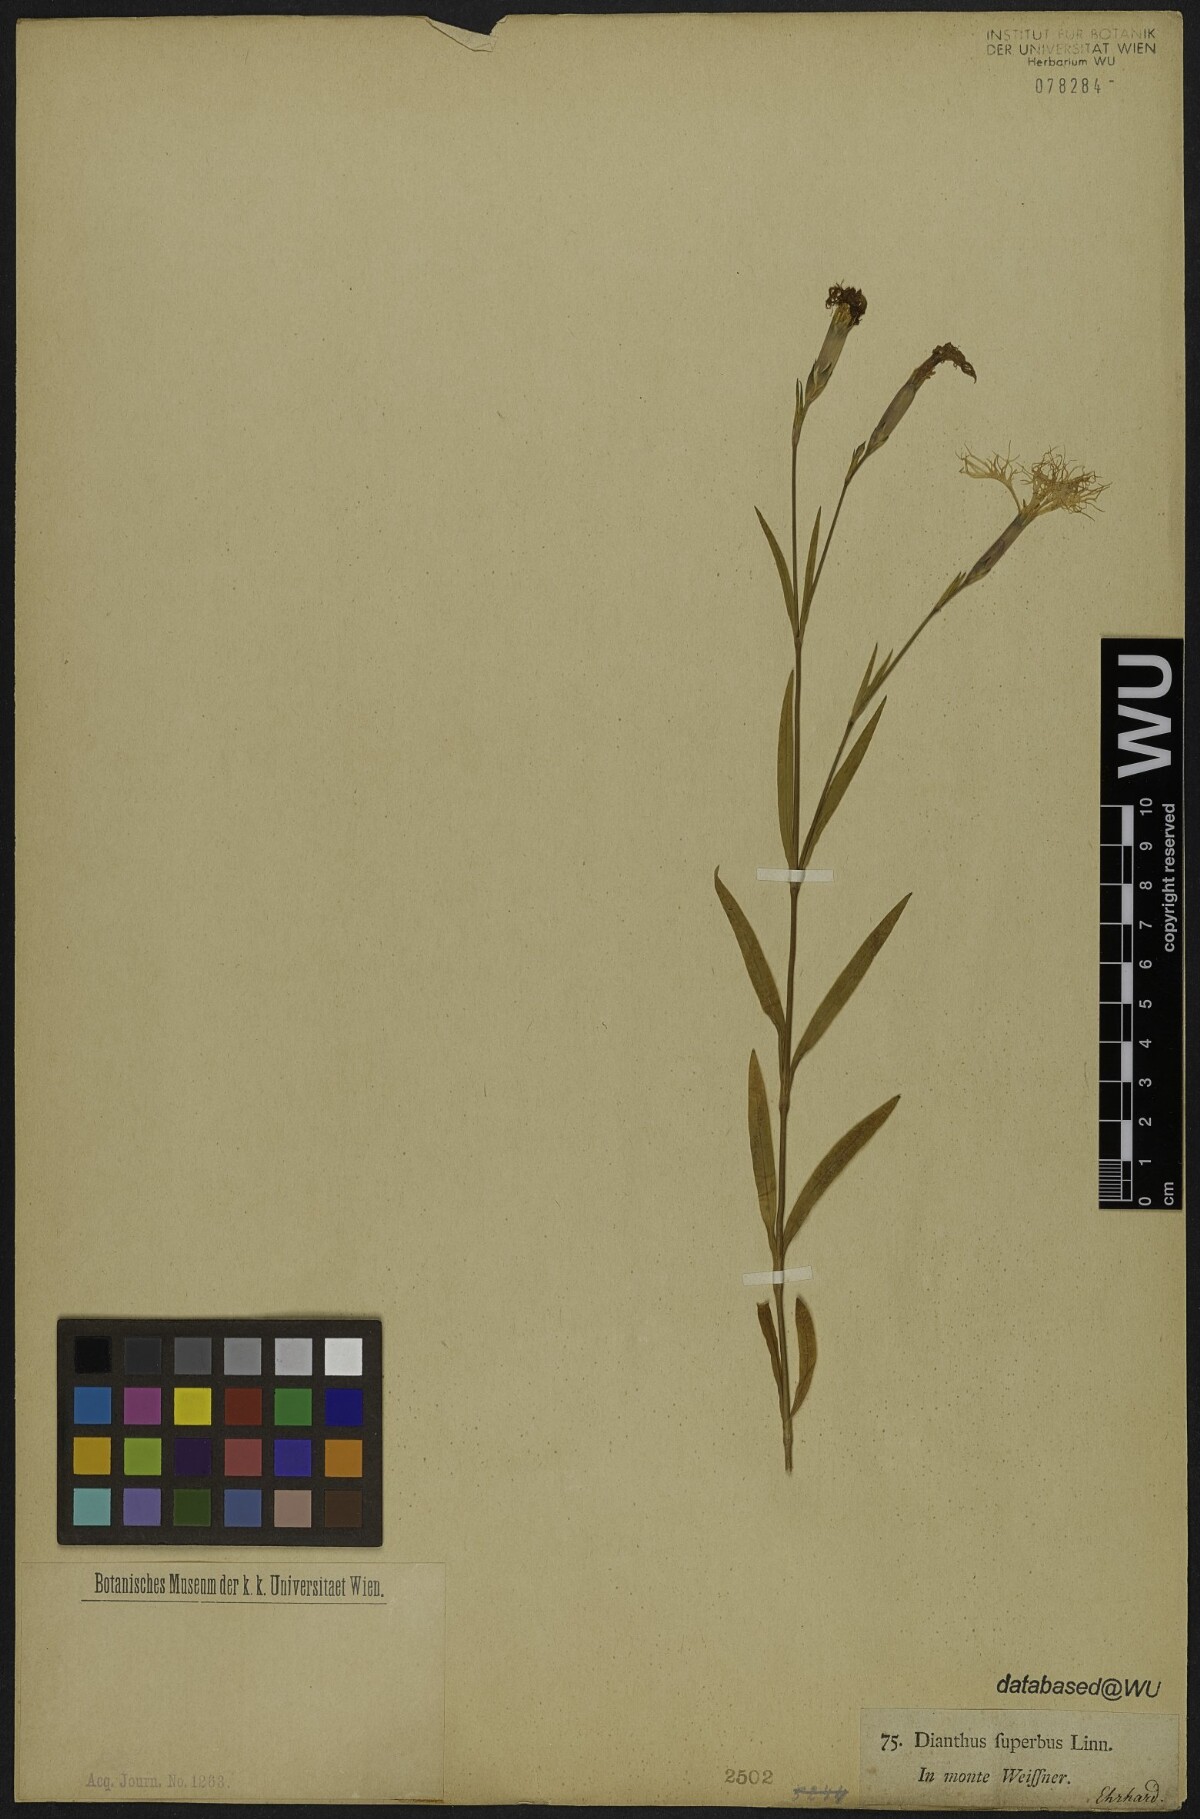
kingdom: Plantae
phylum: Tracheophyta
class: Magnoliopsida
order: Caryophyllales
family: Caryophyllaceae
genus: Dianthus
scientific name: Dianthus superbus
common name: Fringed pink
